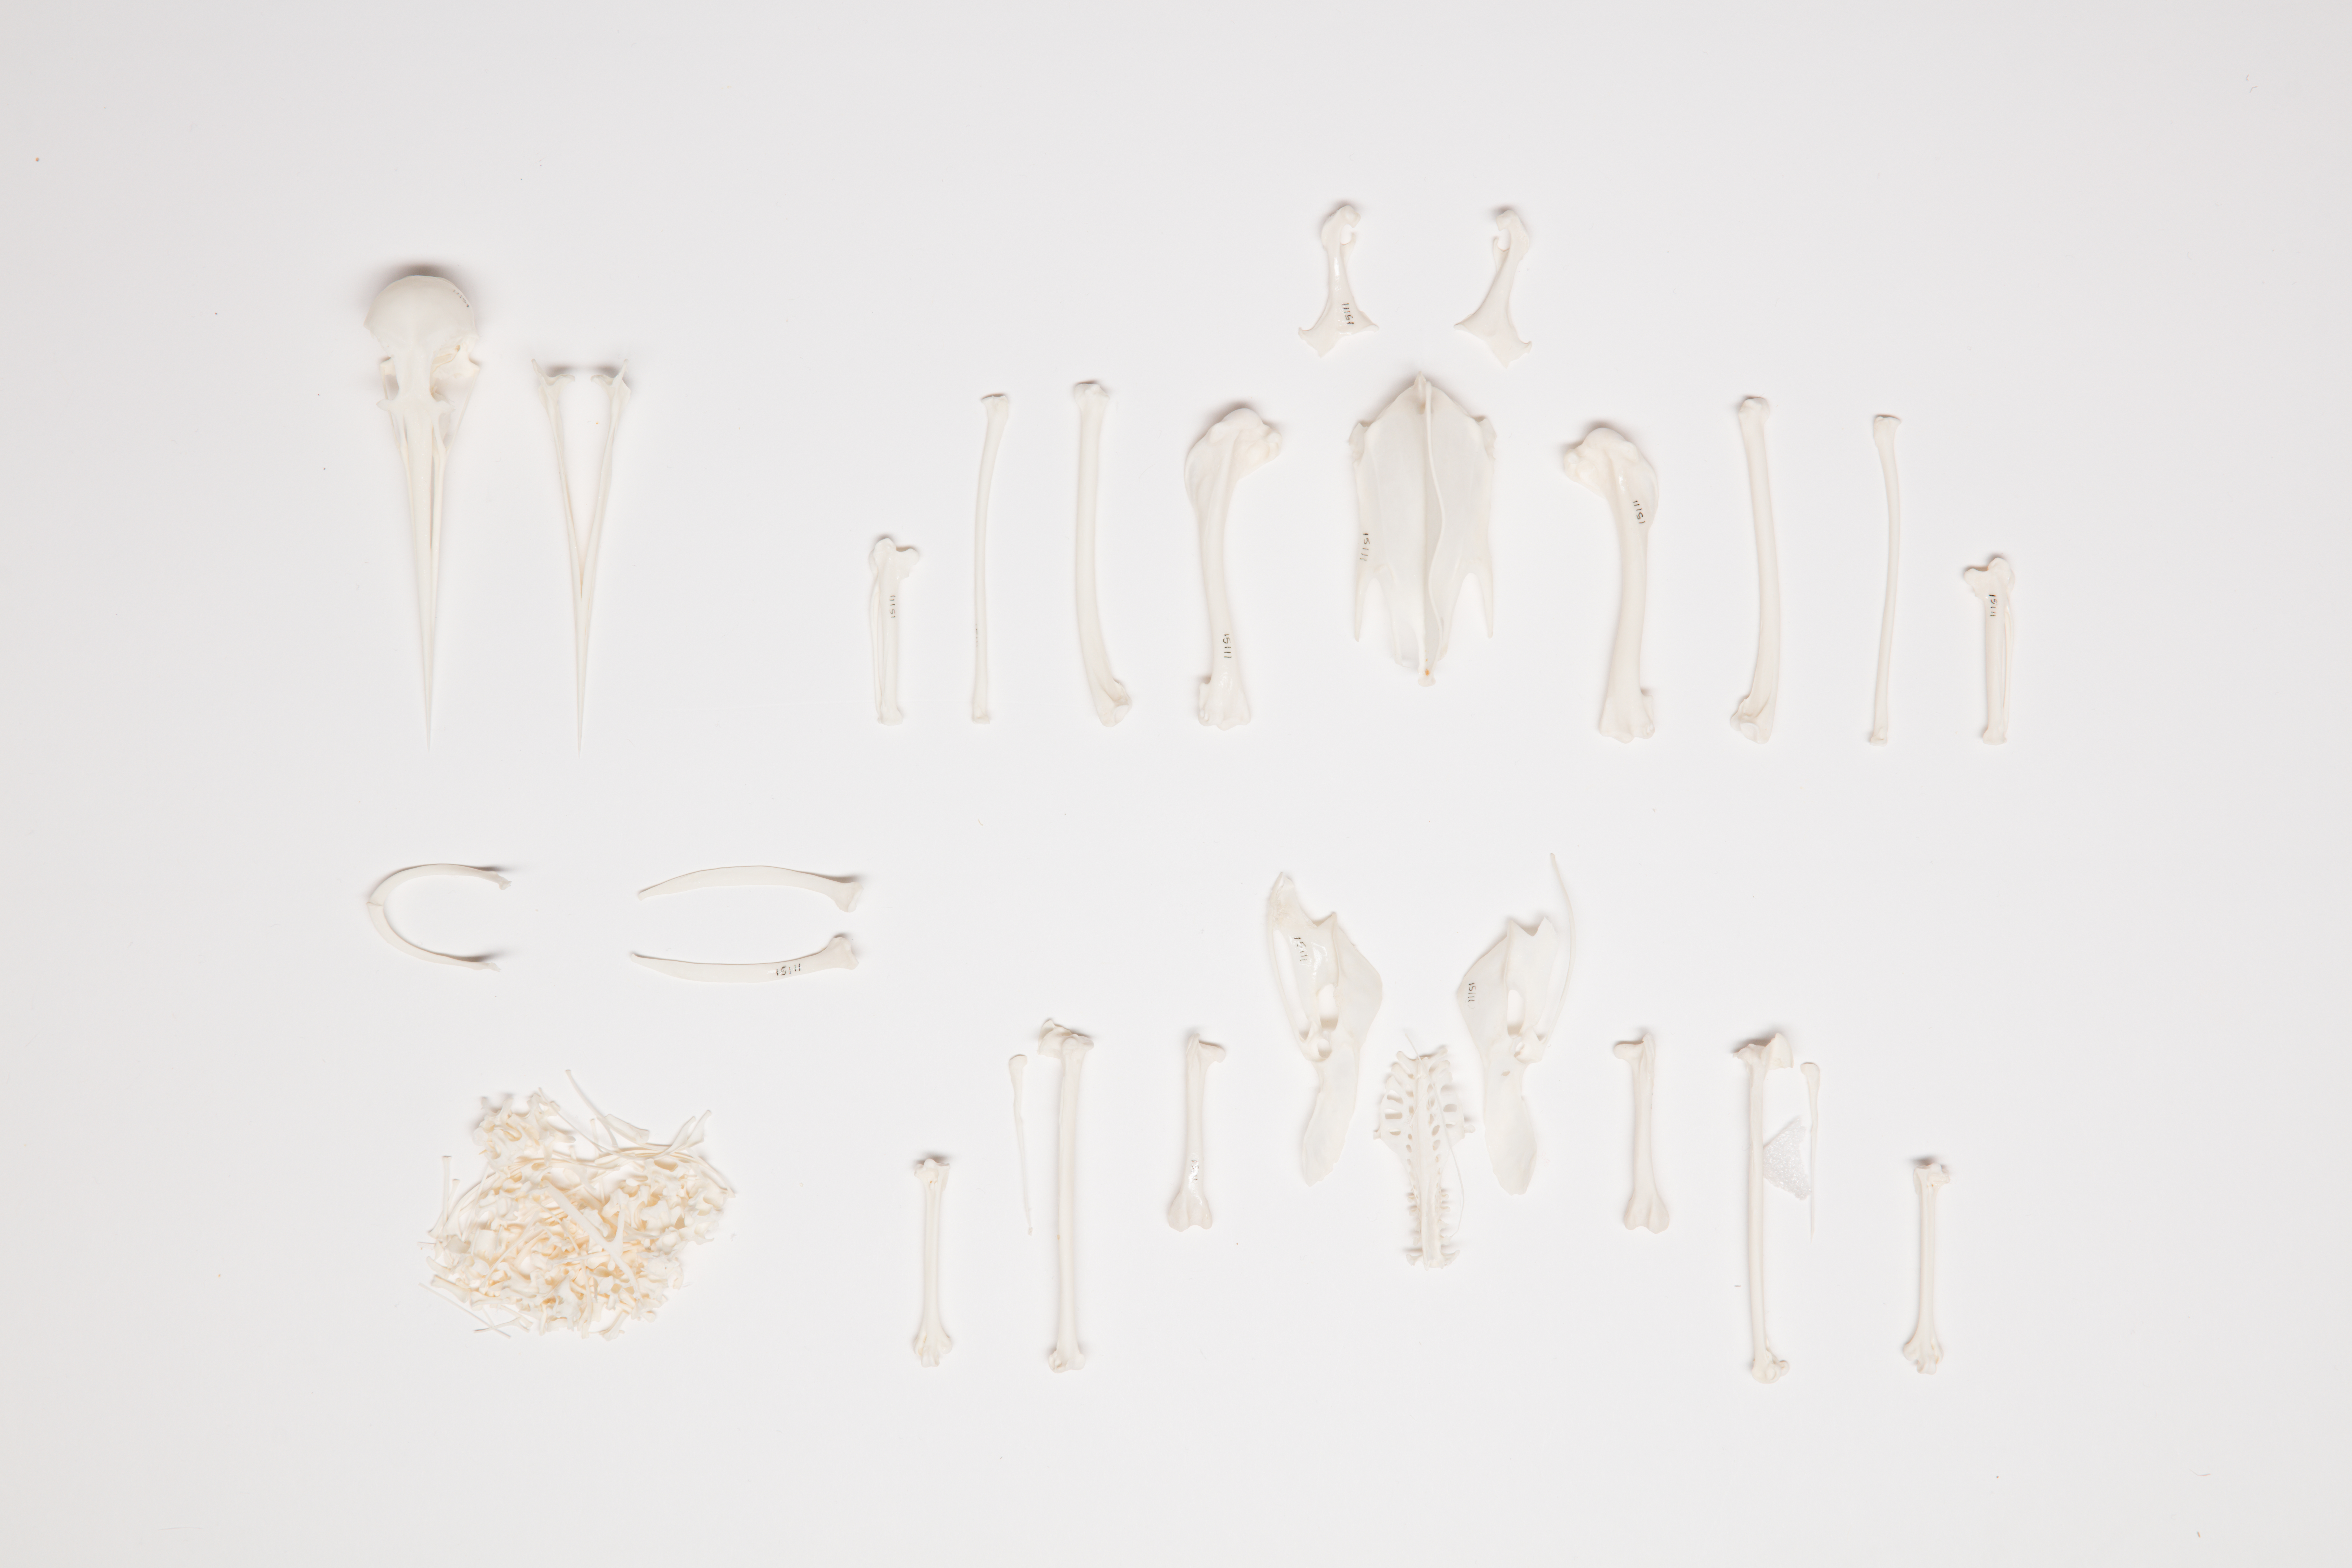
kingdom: Animalia
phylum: Chordata
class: Aves
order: Charadriiformes
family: Haematopodidae
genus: Haematopus
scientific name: Haematopus finschi
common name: South island oystercatcher
